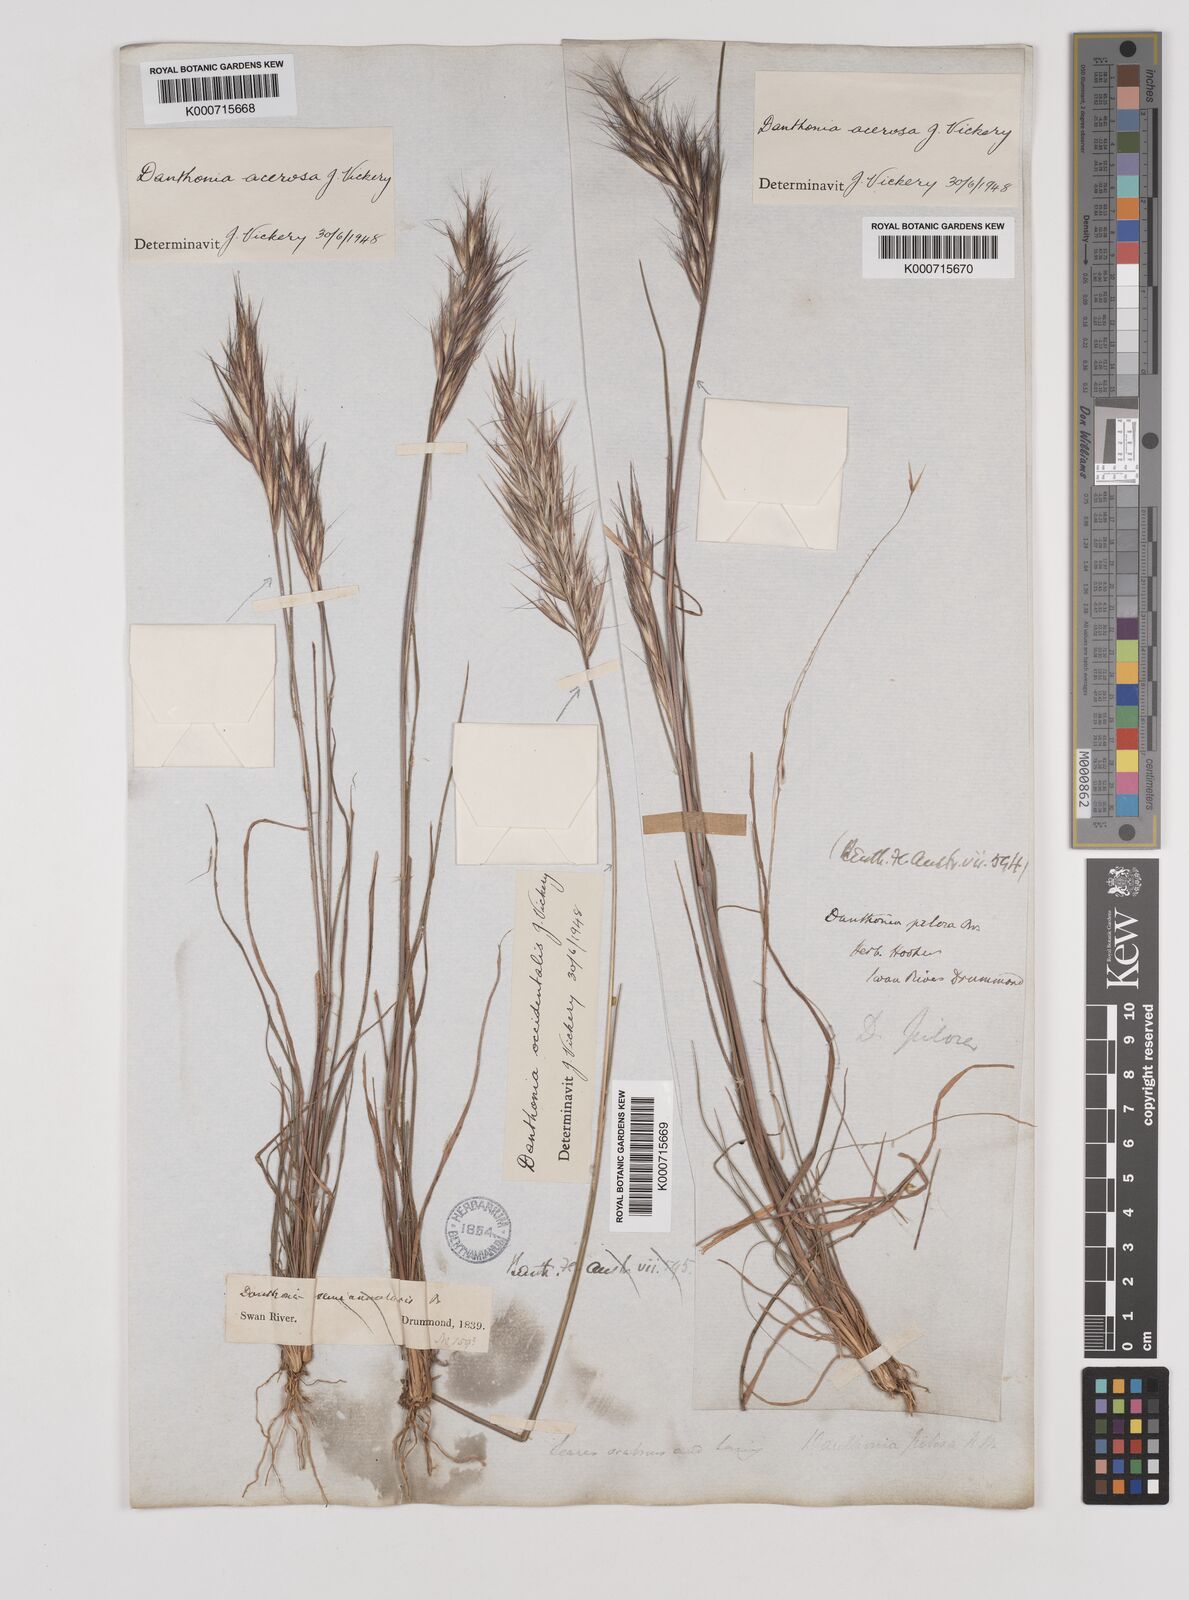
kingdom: Plantae
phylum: Tracheophyta
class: Liliopsida
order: Poales
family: Poaceae
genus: Rytidosperma
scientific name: Rytidosperma acerosum
